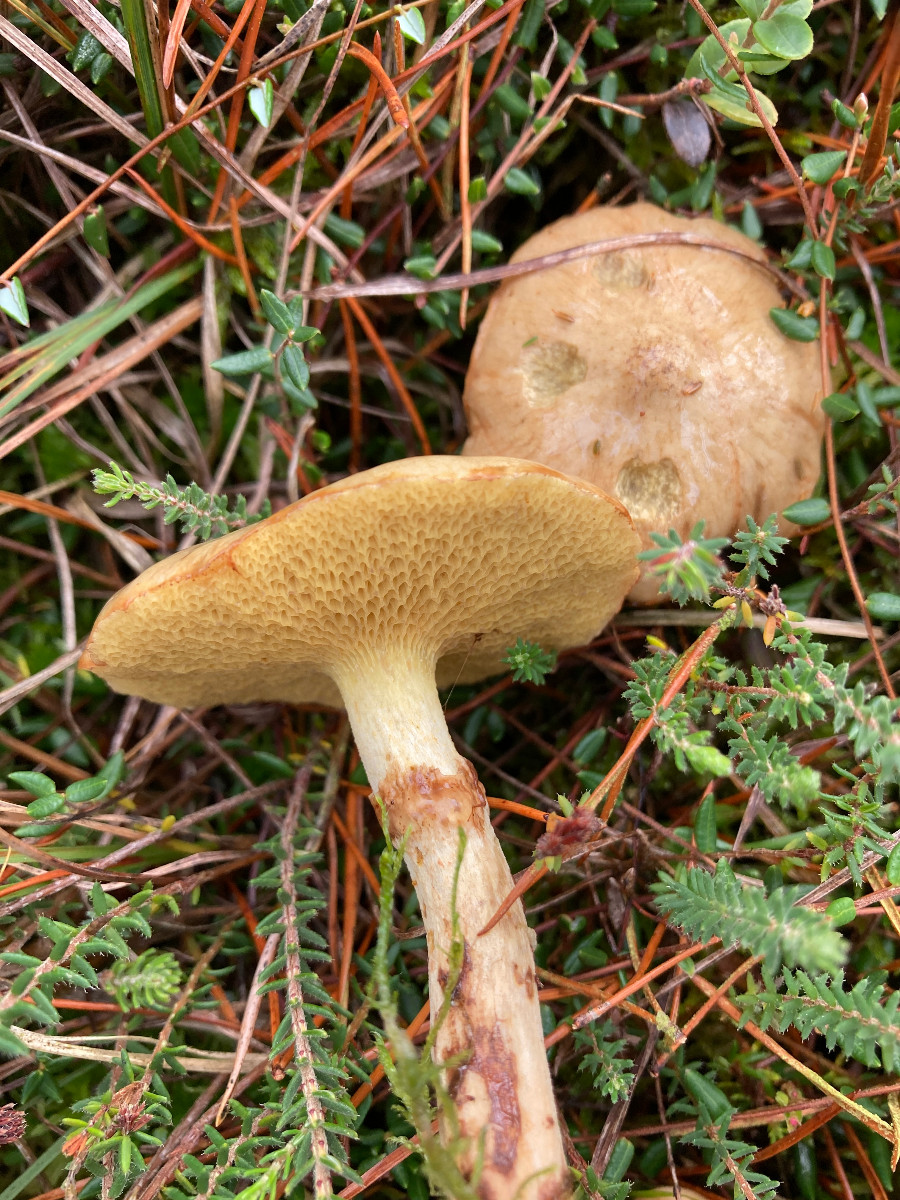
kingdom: Fungi
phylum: Basidiomycota
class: Agaricomycetes
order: Boletales
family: Suillaceae
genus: Suillus
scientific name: Suillus flavidus
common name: mose-slimrørhat
